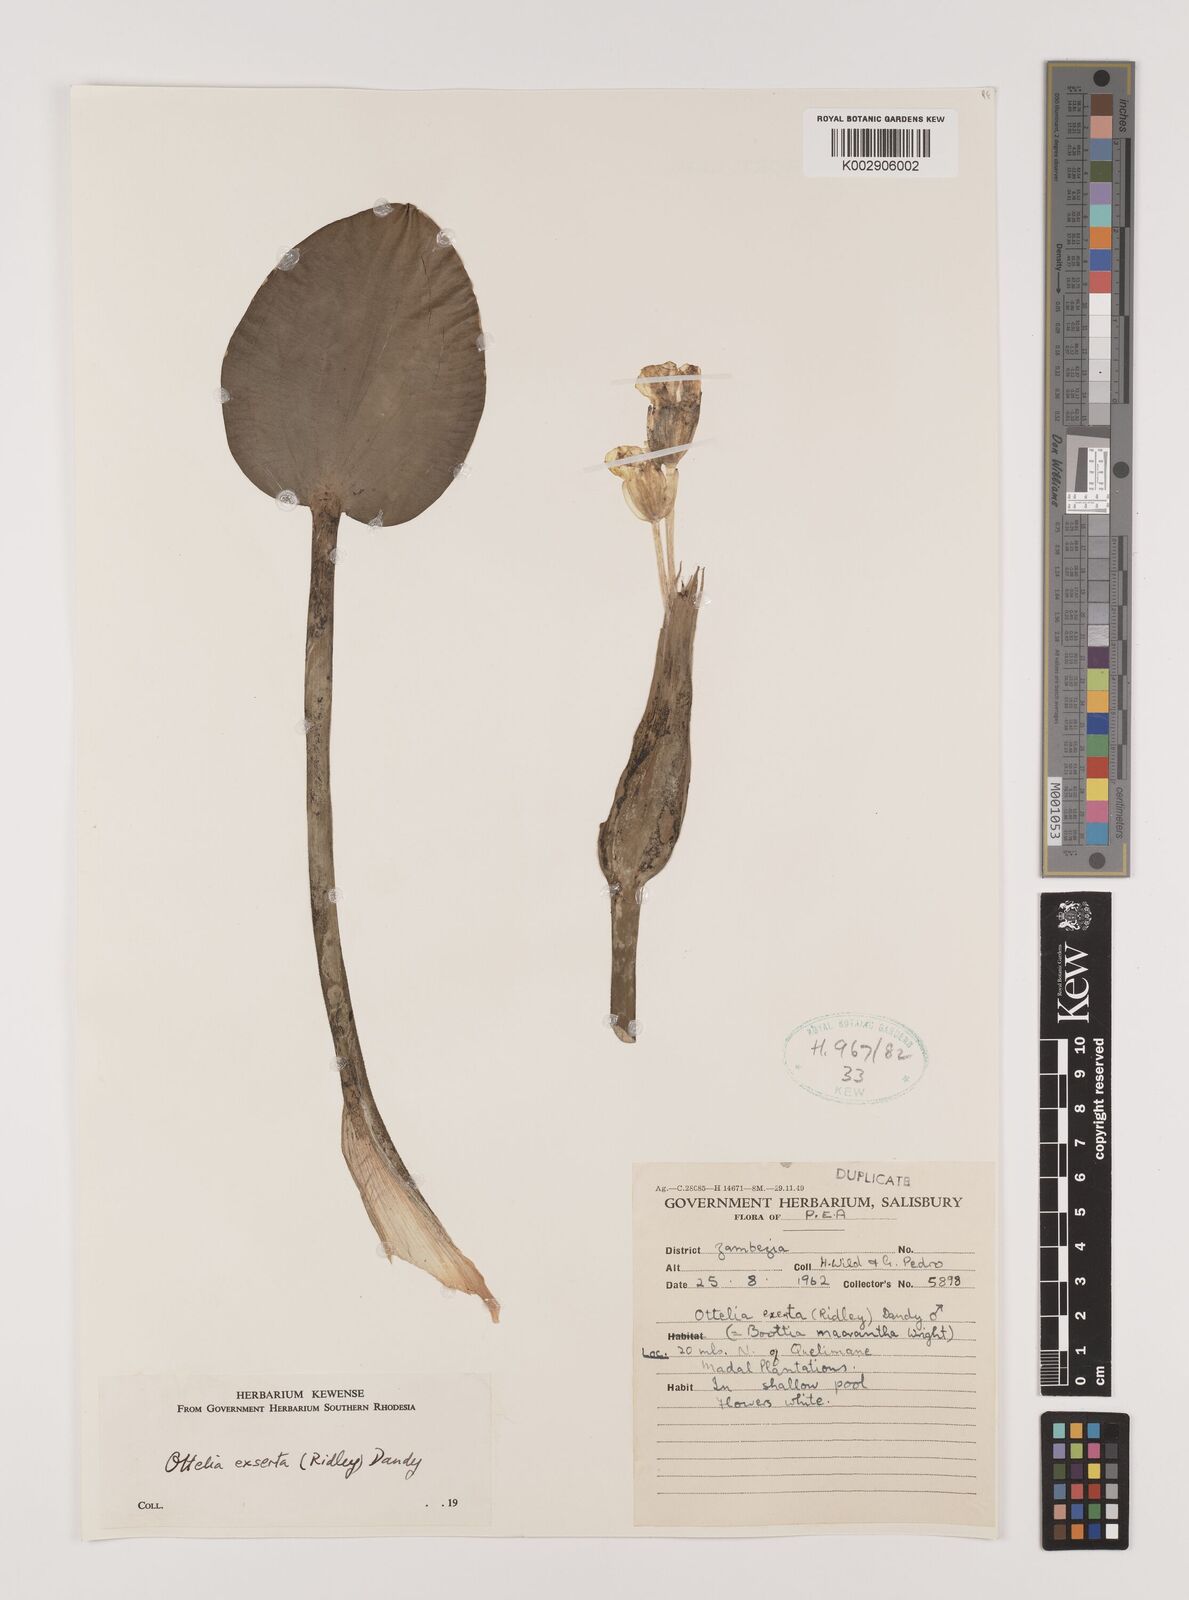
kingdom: Plantae
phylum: Tracheophyta
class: Liliopsida
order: Alismatales
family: Hydrocharitaceae
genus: Ottelia
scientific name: Ottelia exserta
